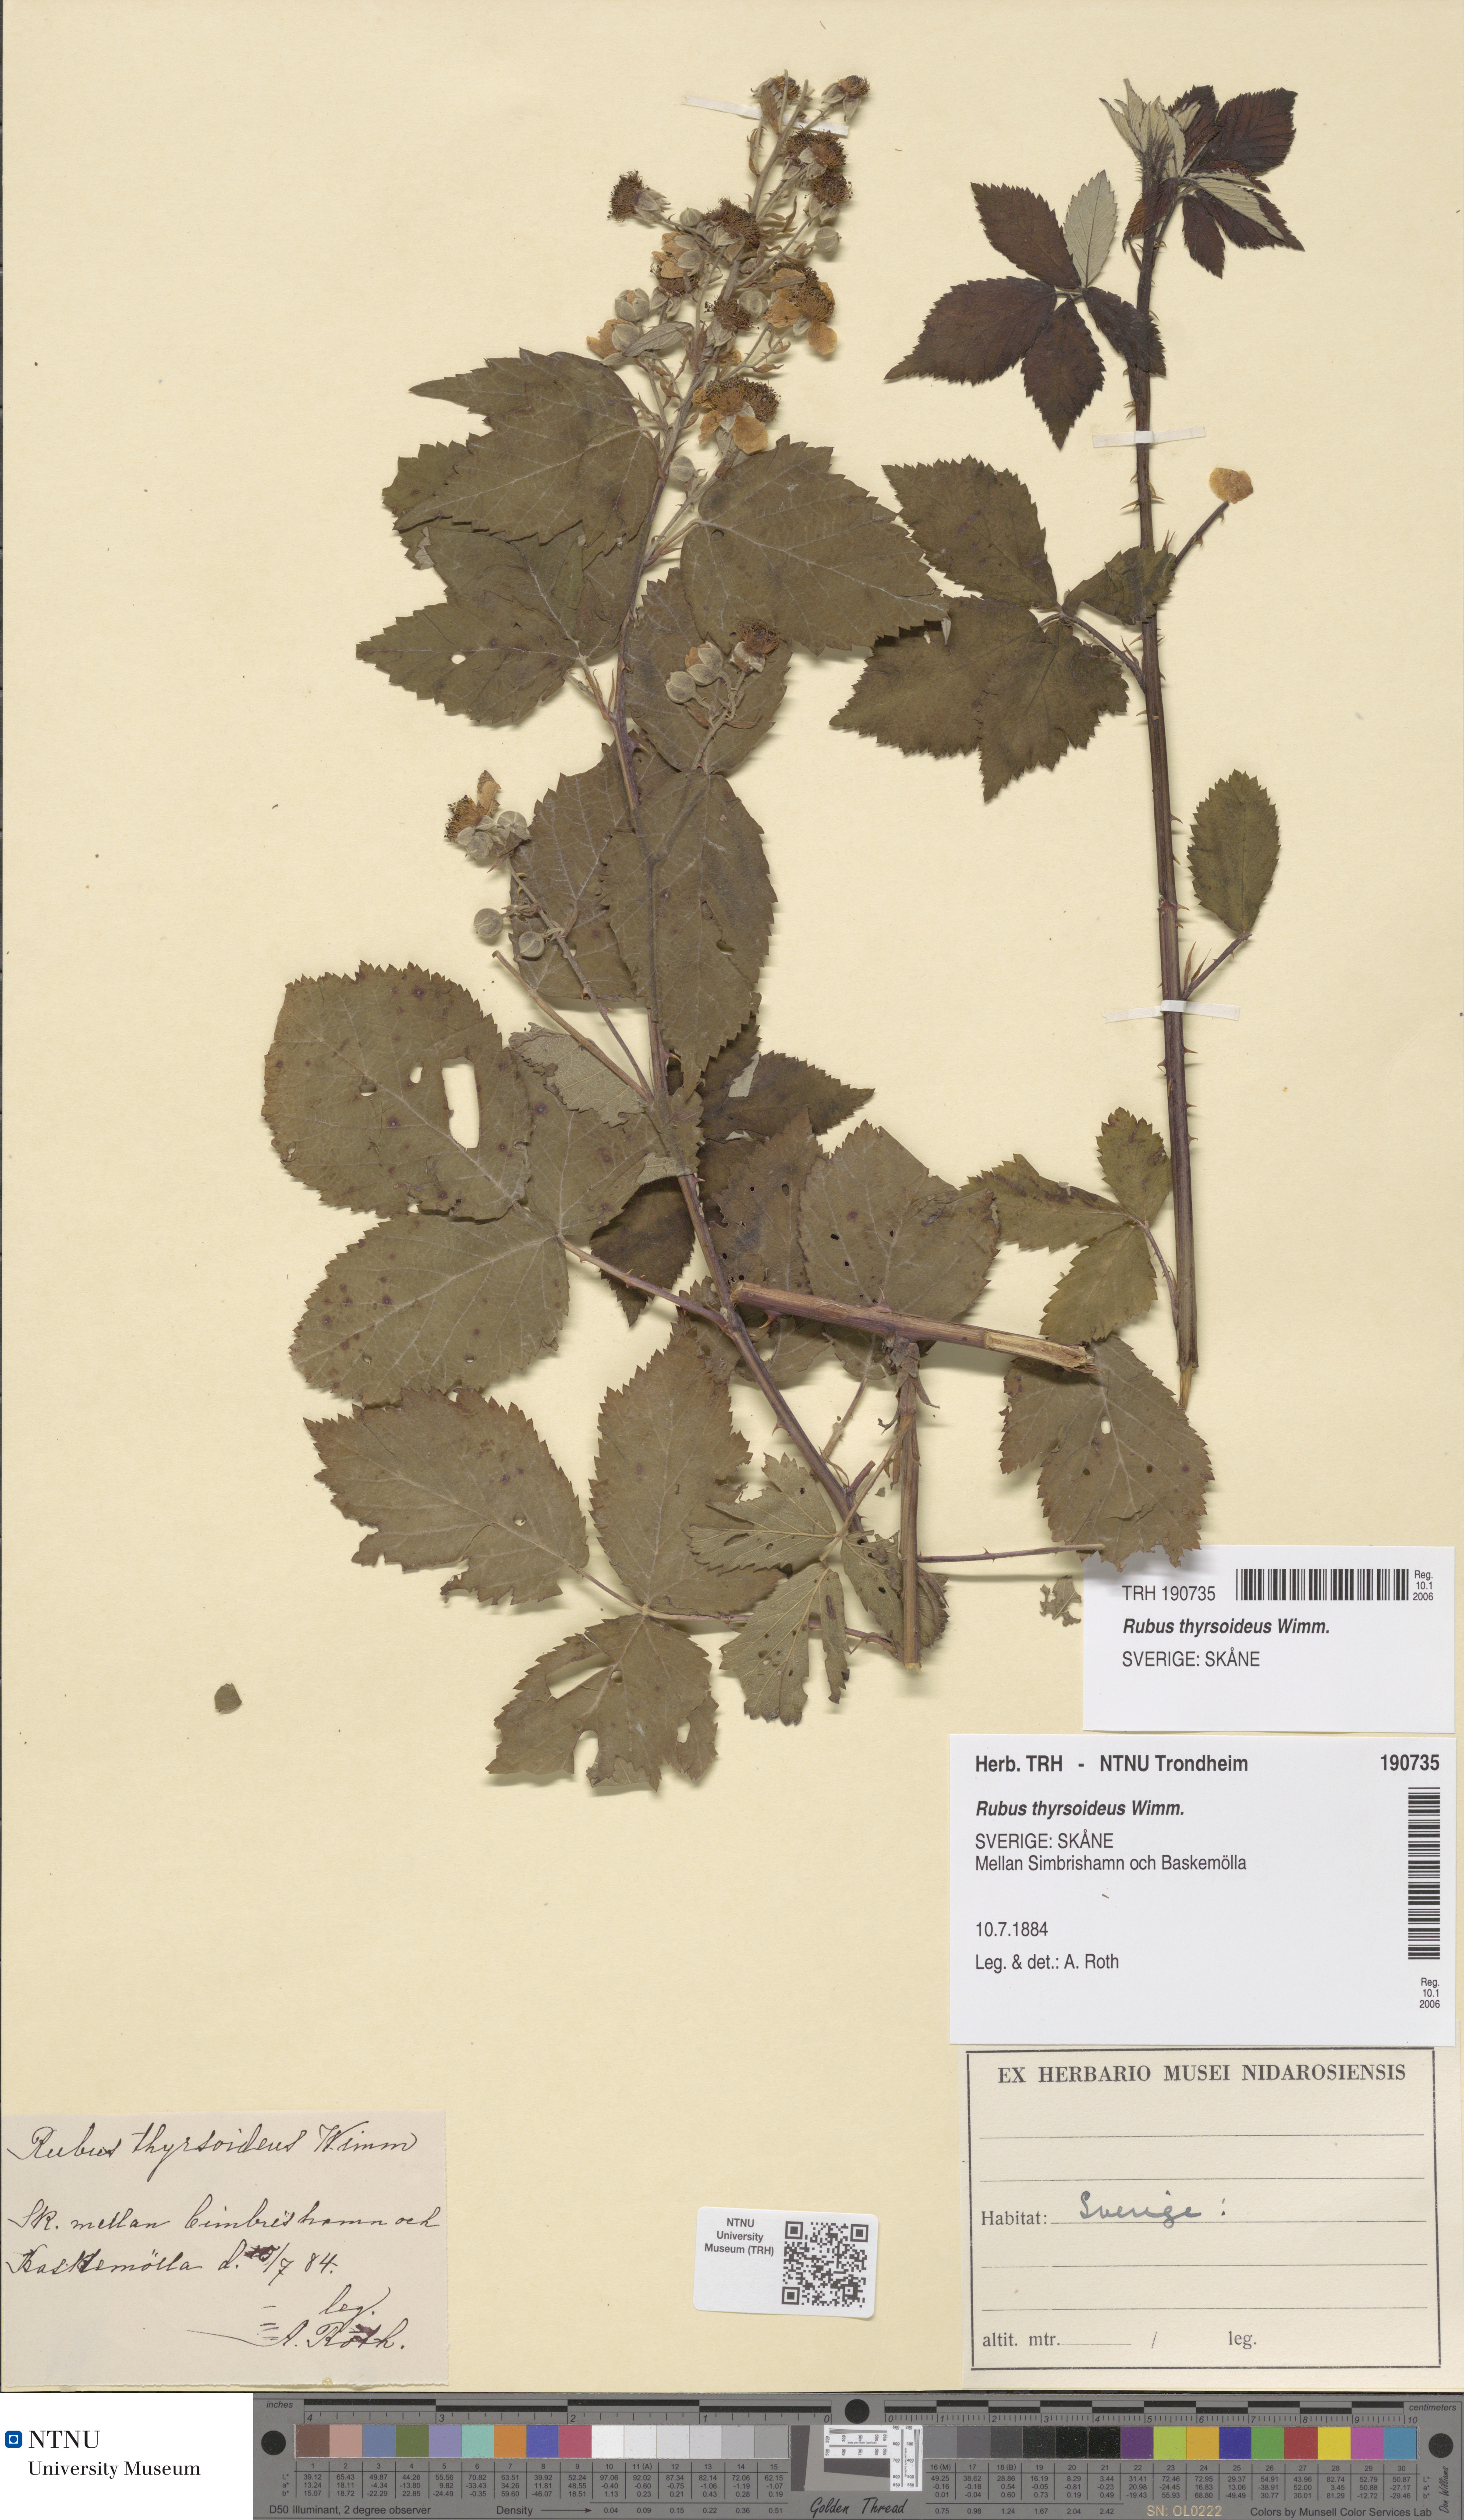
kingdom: Plantae
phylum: Tracheophyta
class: Magnoliopsida
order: Rosales
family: Rosaceae
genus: Rubus
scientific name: Rubus
